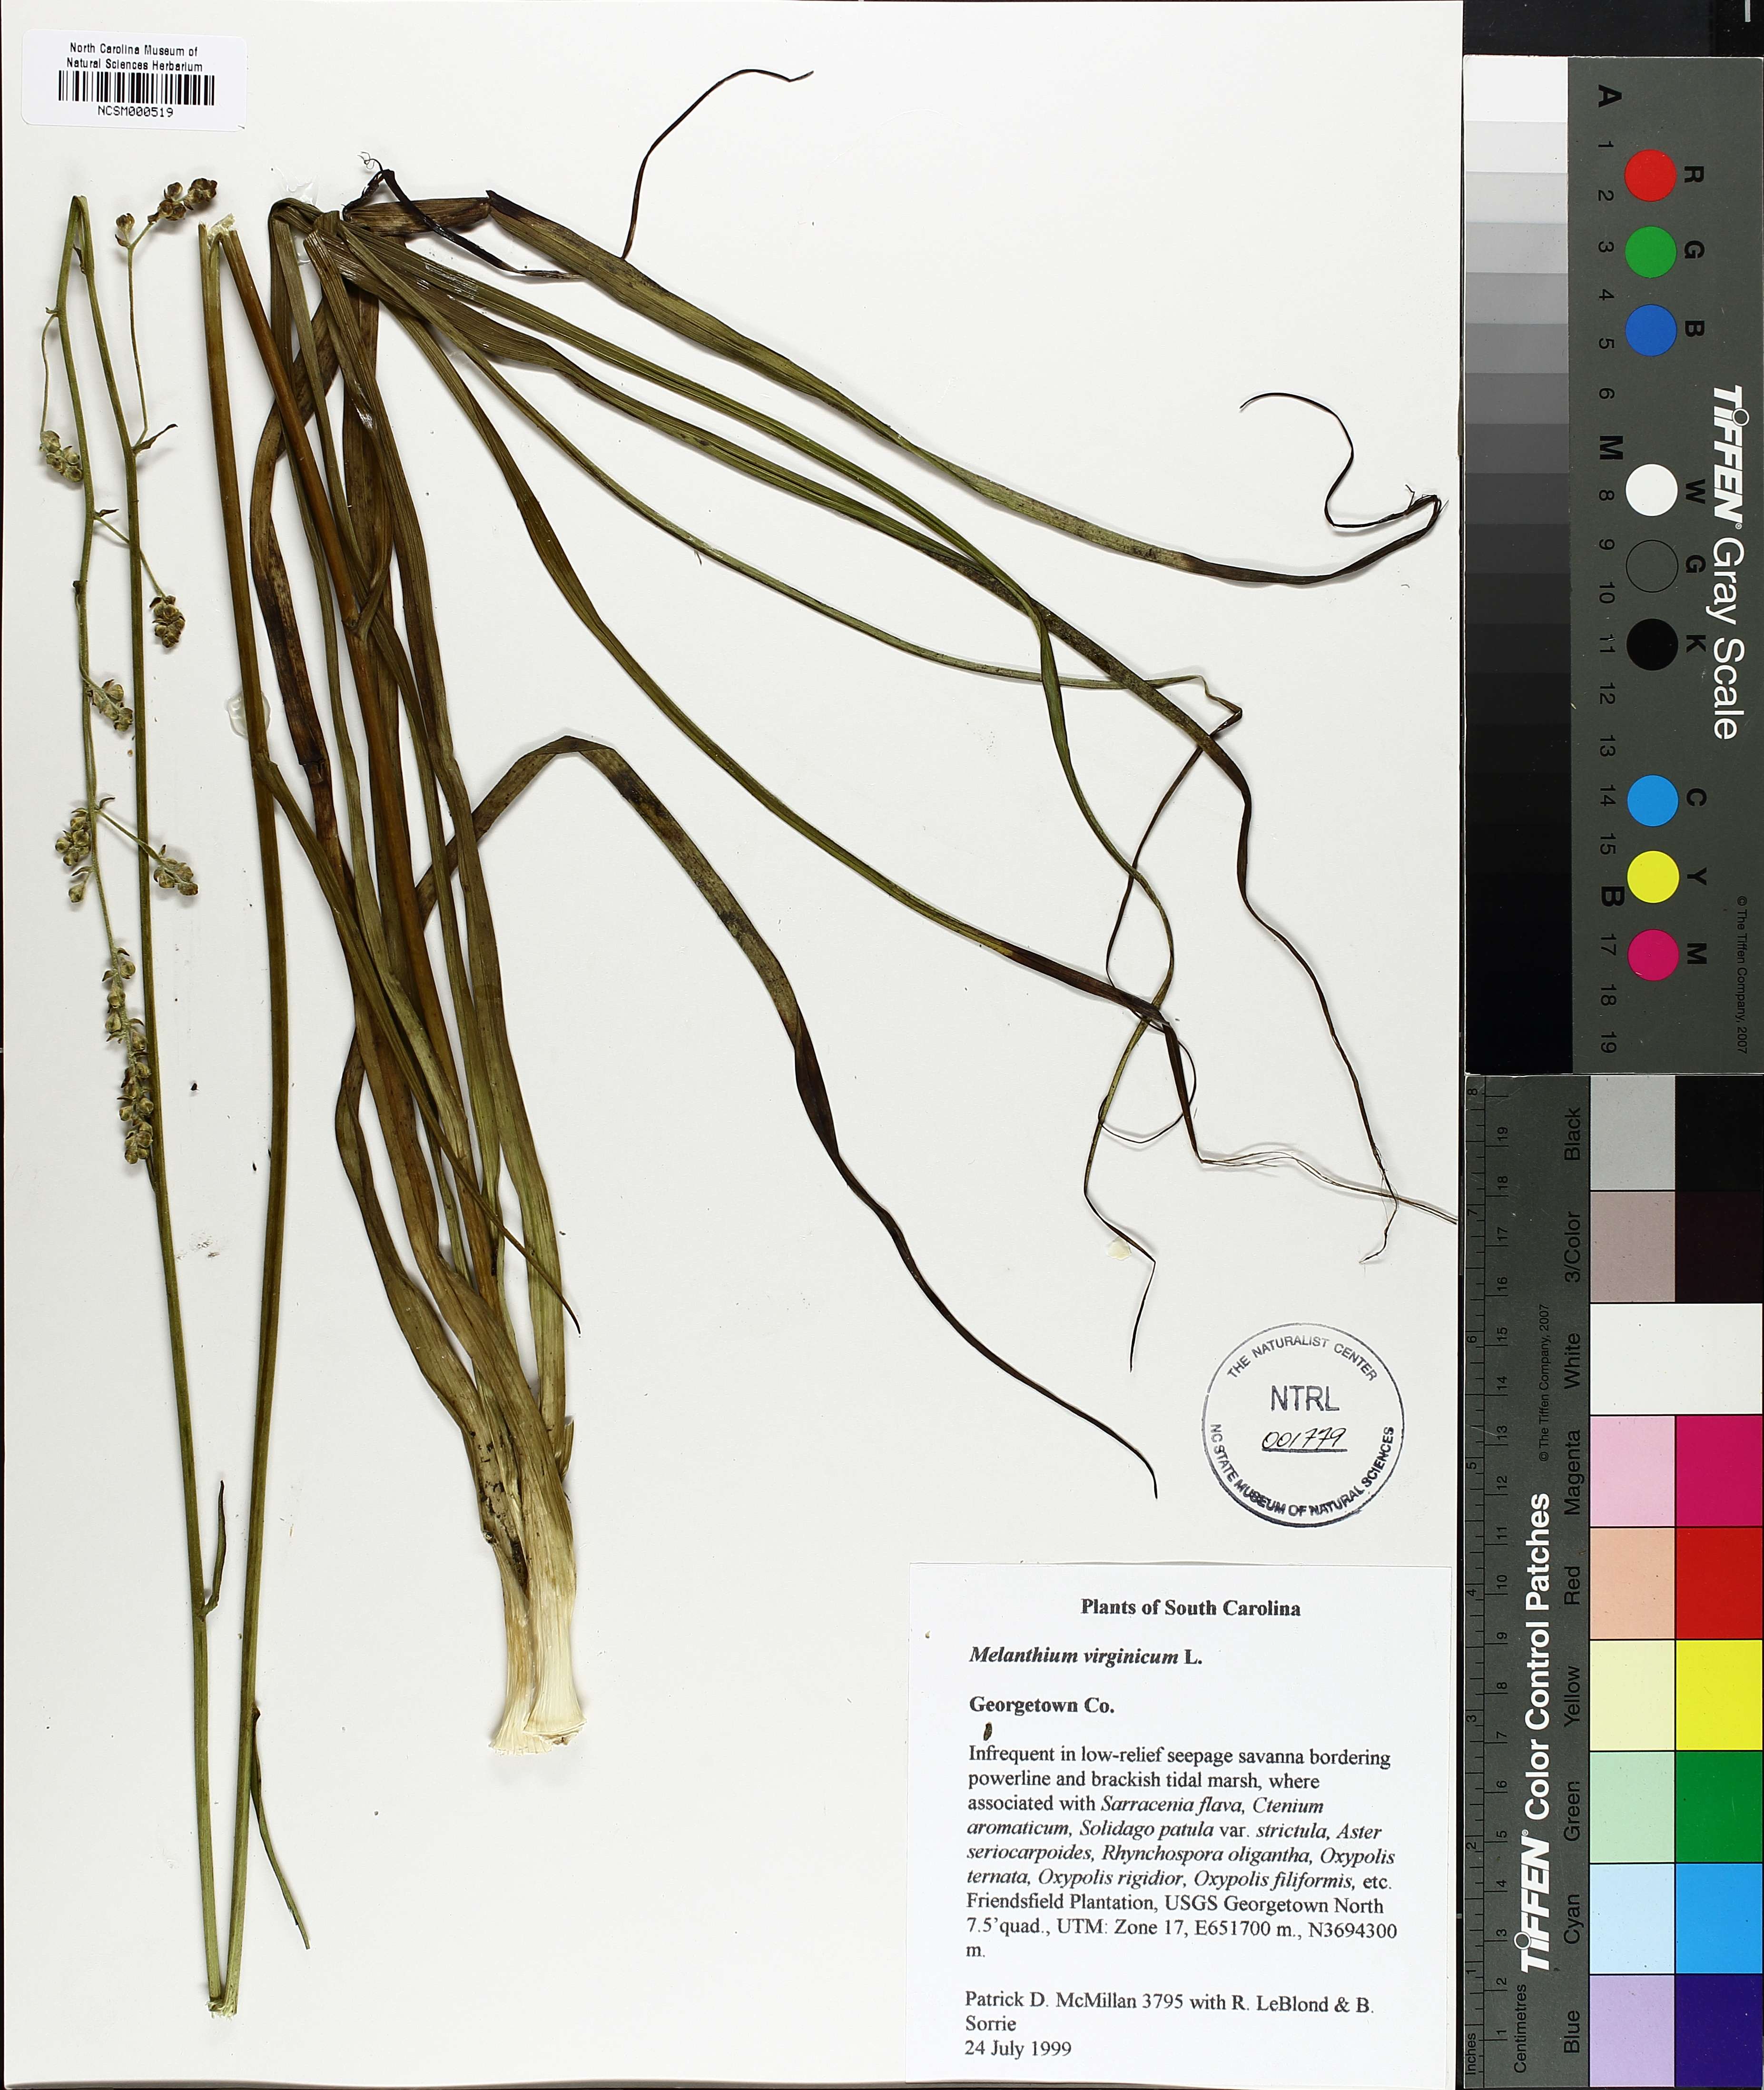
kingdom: Plantae
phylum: Tracheophyta
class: Liliopsida
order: Liliales
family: Melanthiaceae
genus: Melanthium
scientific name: Melanthium virginicum
